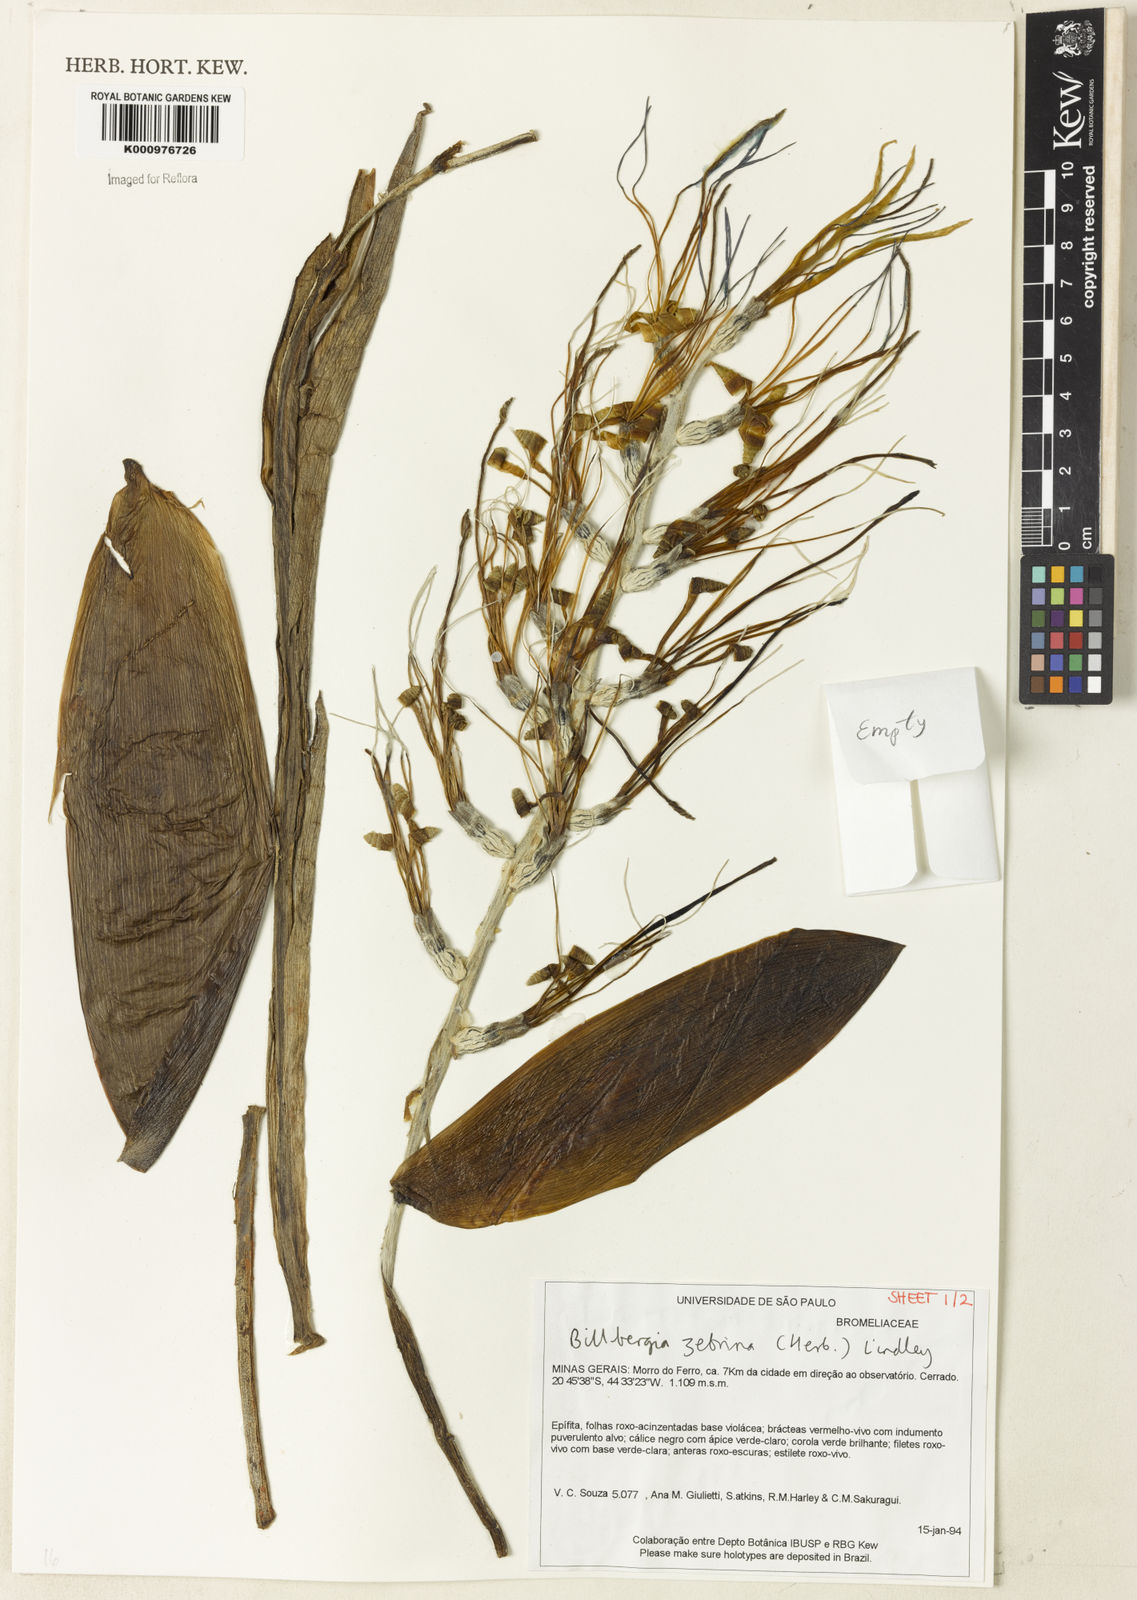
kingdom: Plantae
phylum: Tracheophyta
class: Liliopsida
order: Poales
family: Bromeliaceae
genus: Billbergia
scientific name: Billbergia zebrina
